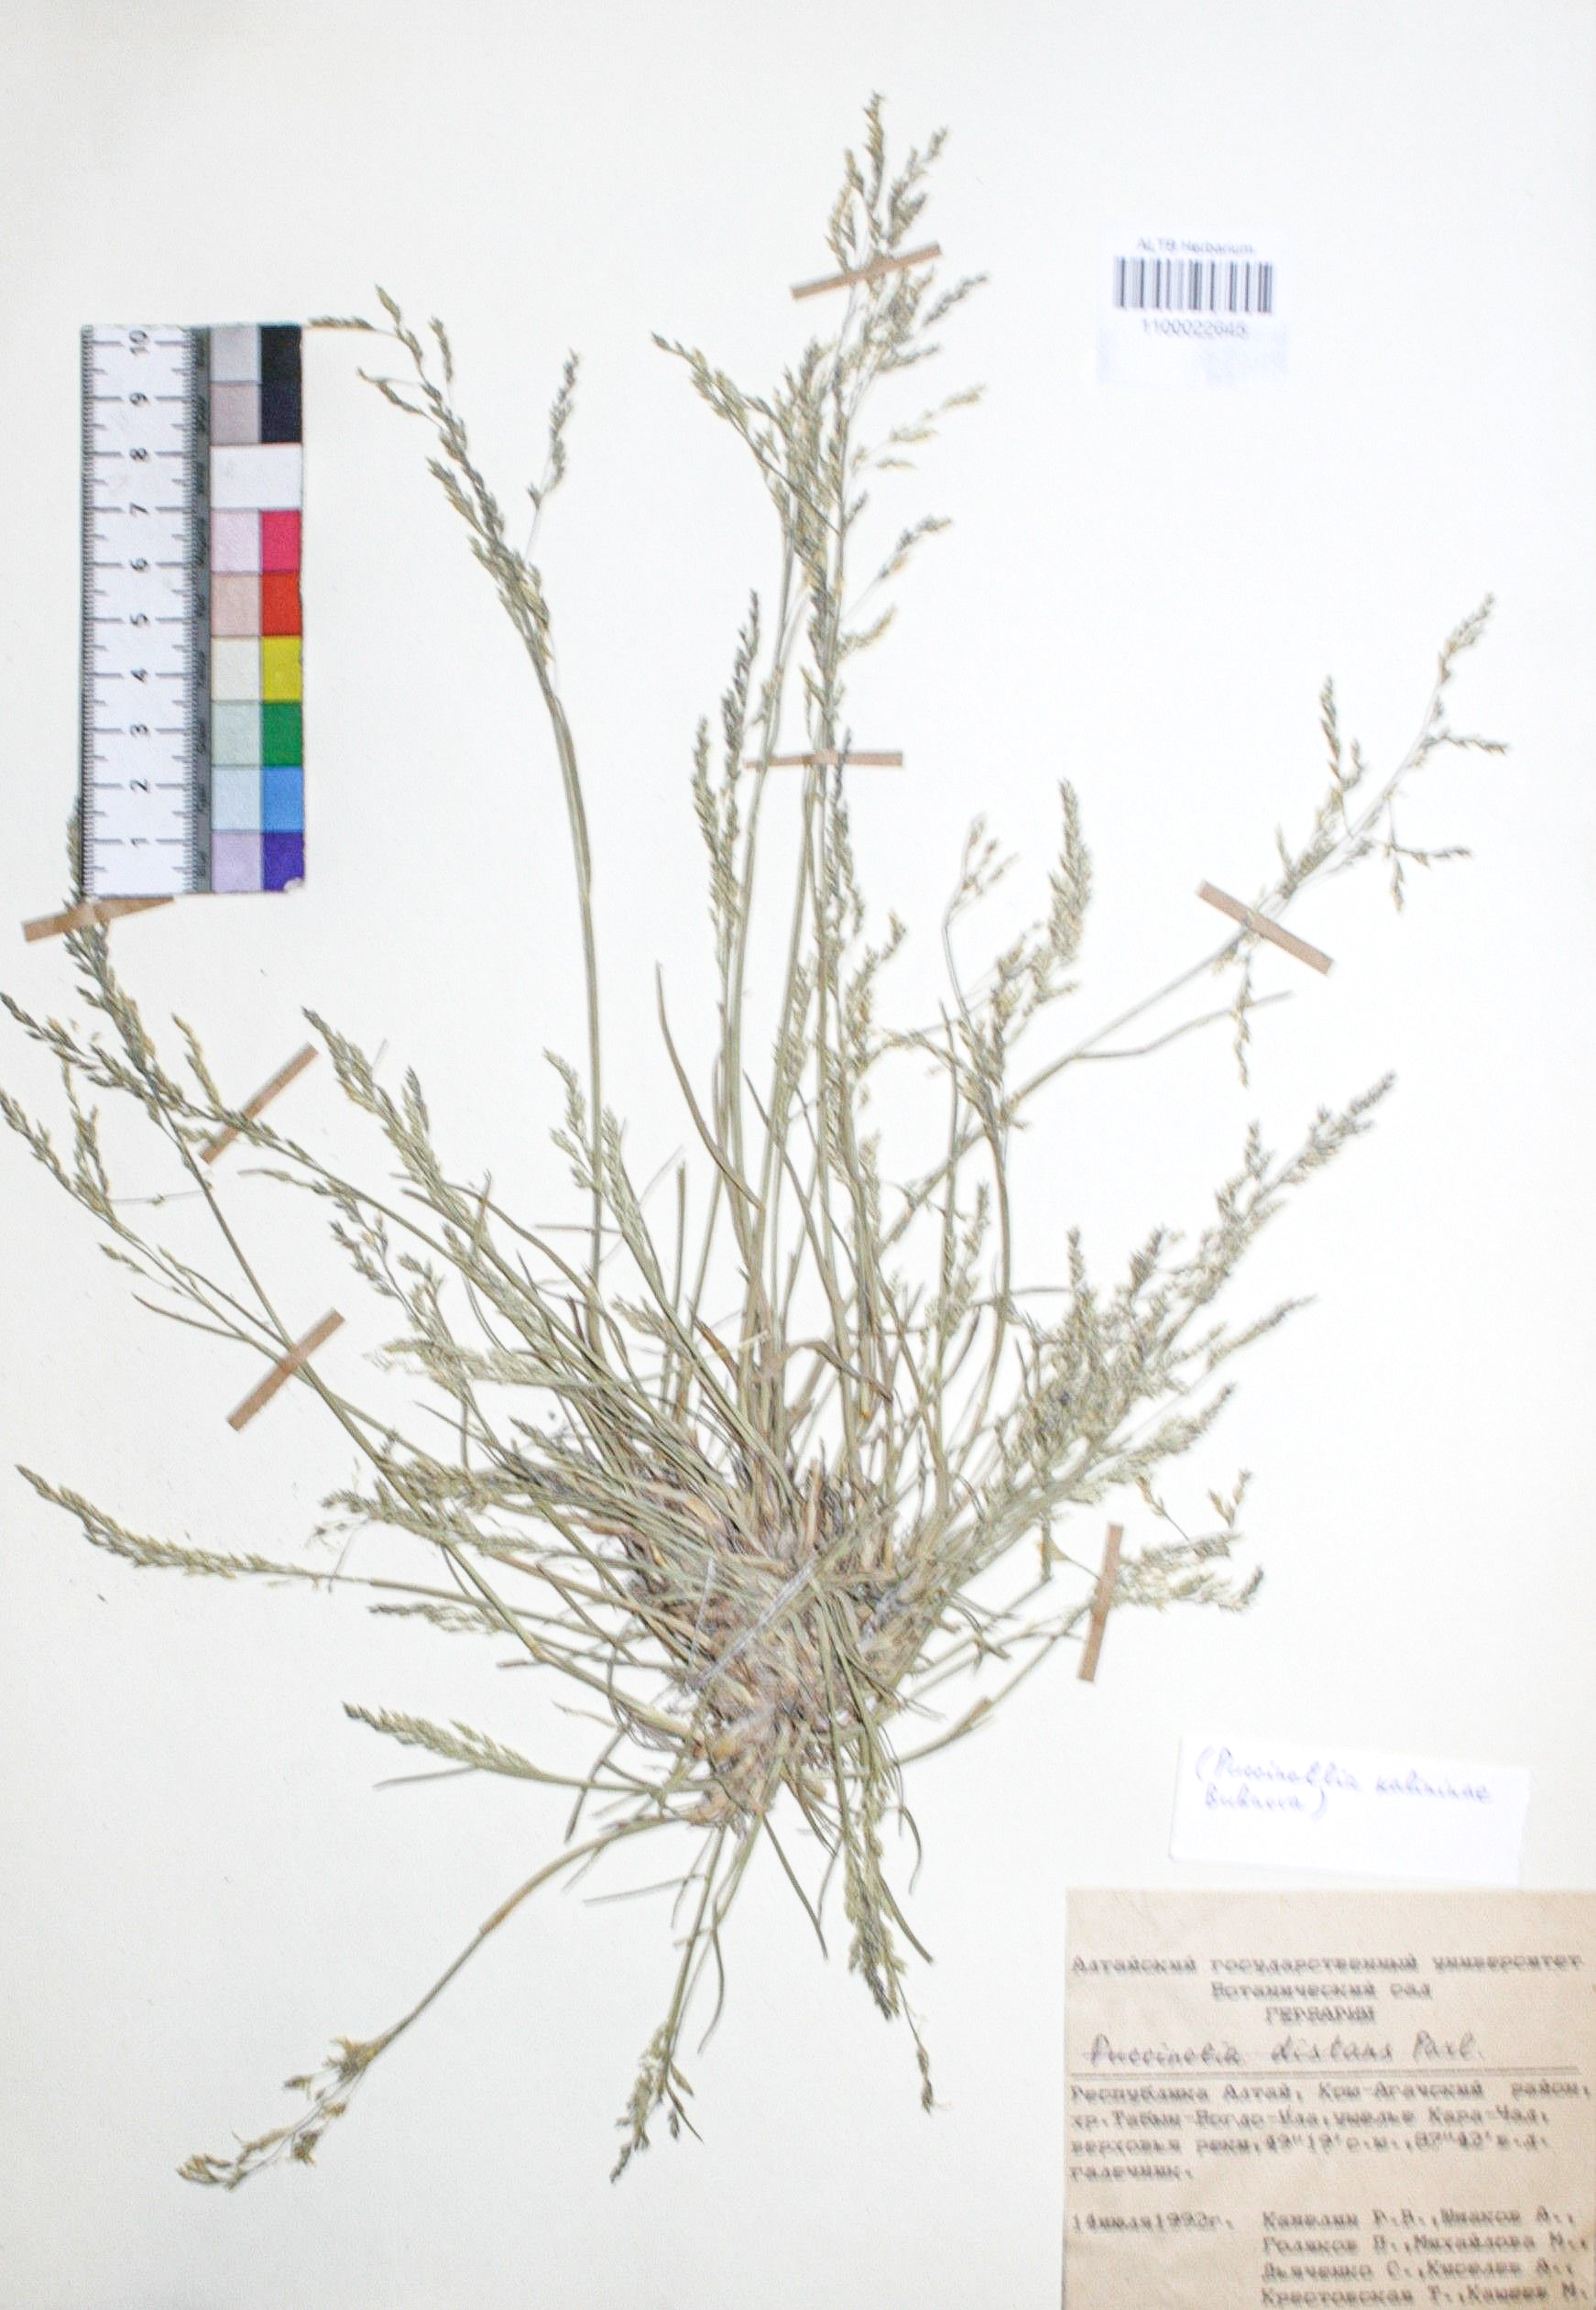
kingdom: Plantae
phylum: Tracheophyta
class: Liliopsida
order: Poales
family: Poaceae
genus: Puccinellia
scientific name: Puccinellia distans
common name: Weeping alkaligrass
